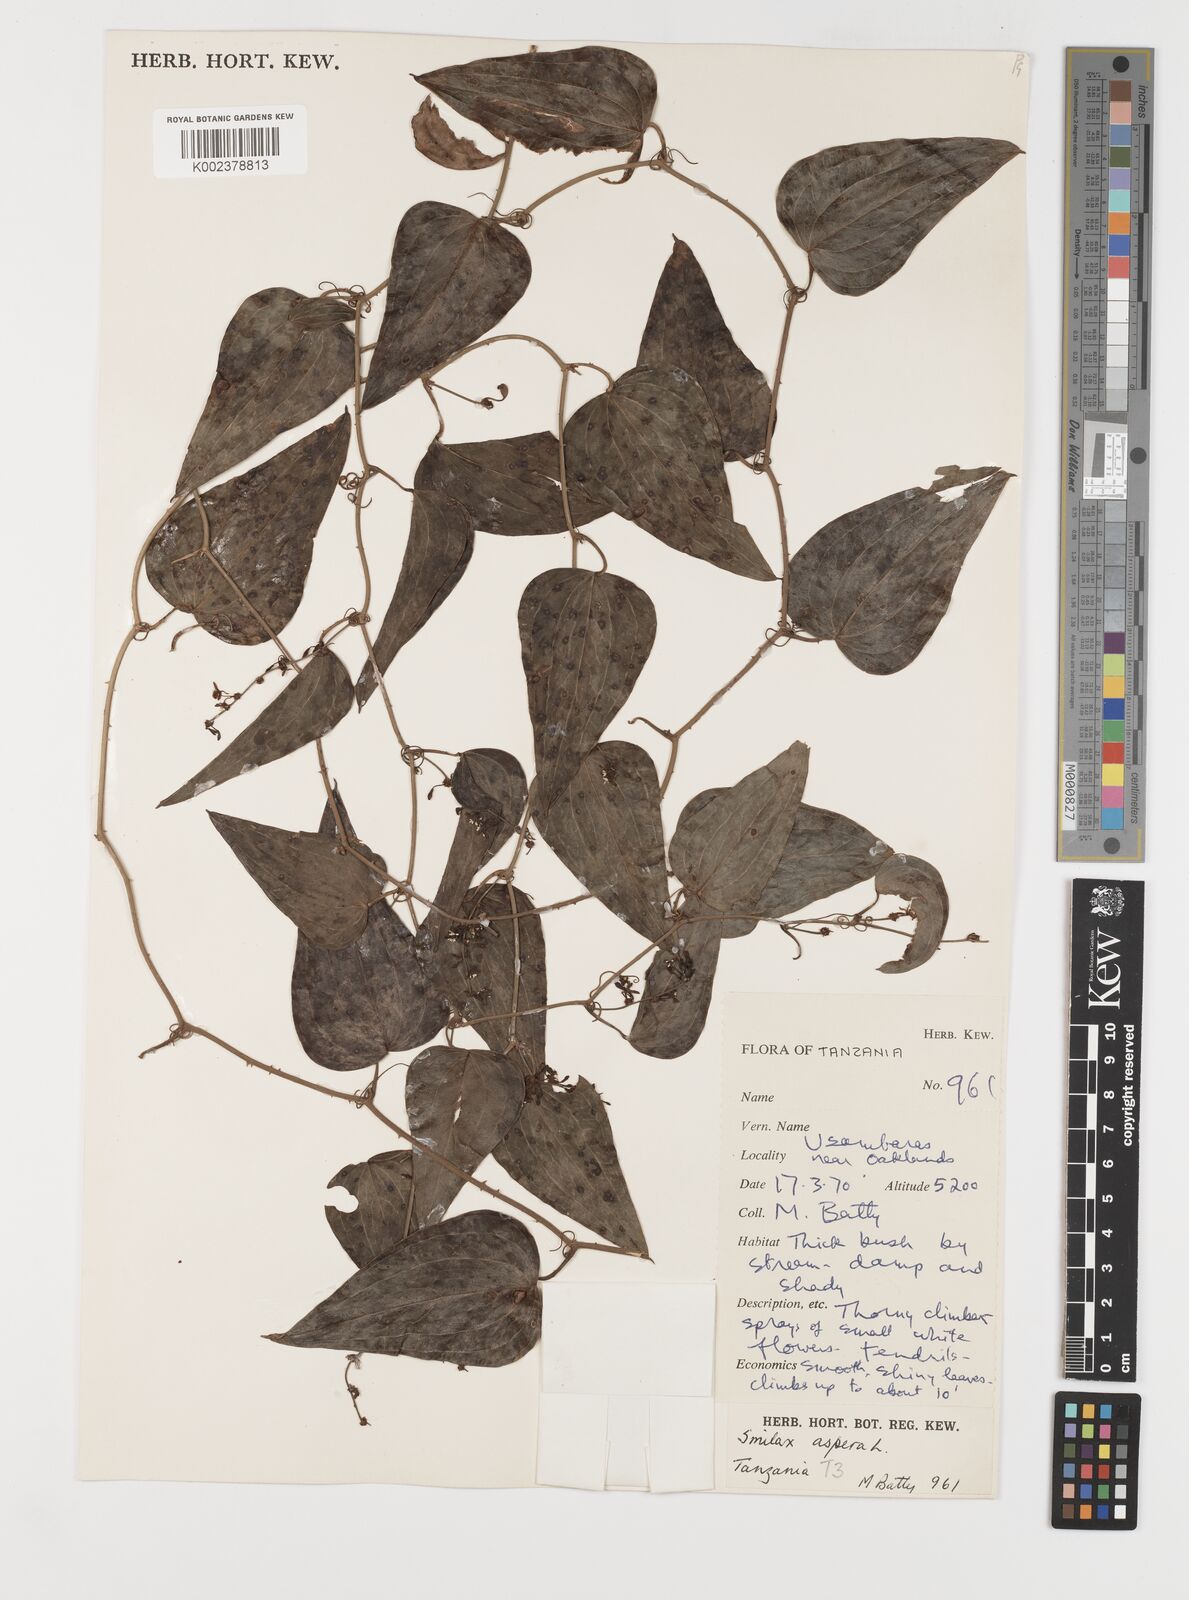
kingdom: Plantae
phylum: Tracheophyta
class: Liliopsida
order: Liliales
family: Smilacaceae
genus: Smilax
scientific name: Smilax aspera
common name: Common smilax
